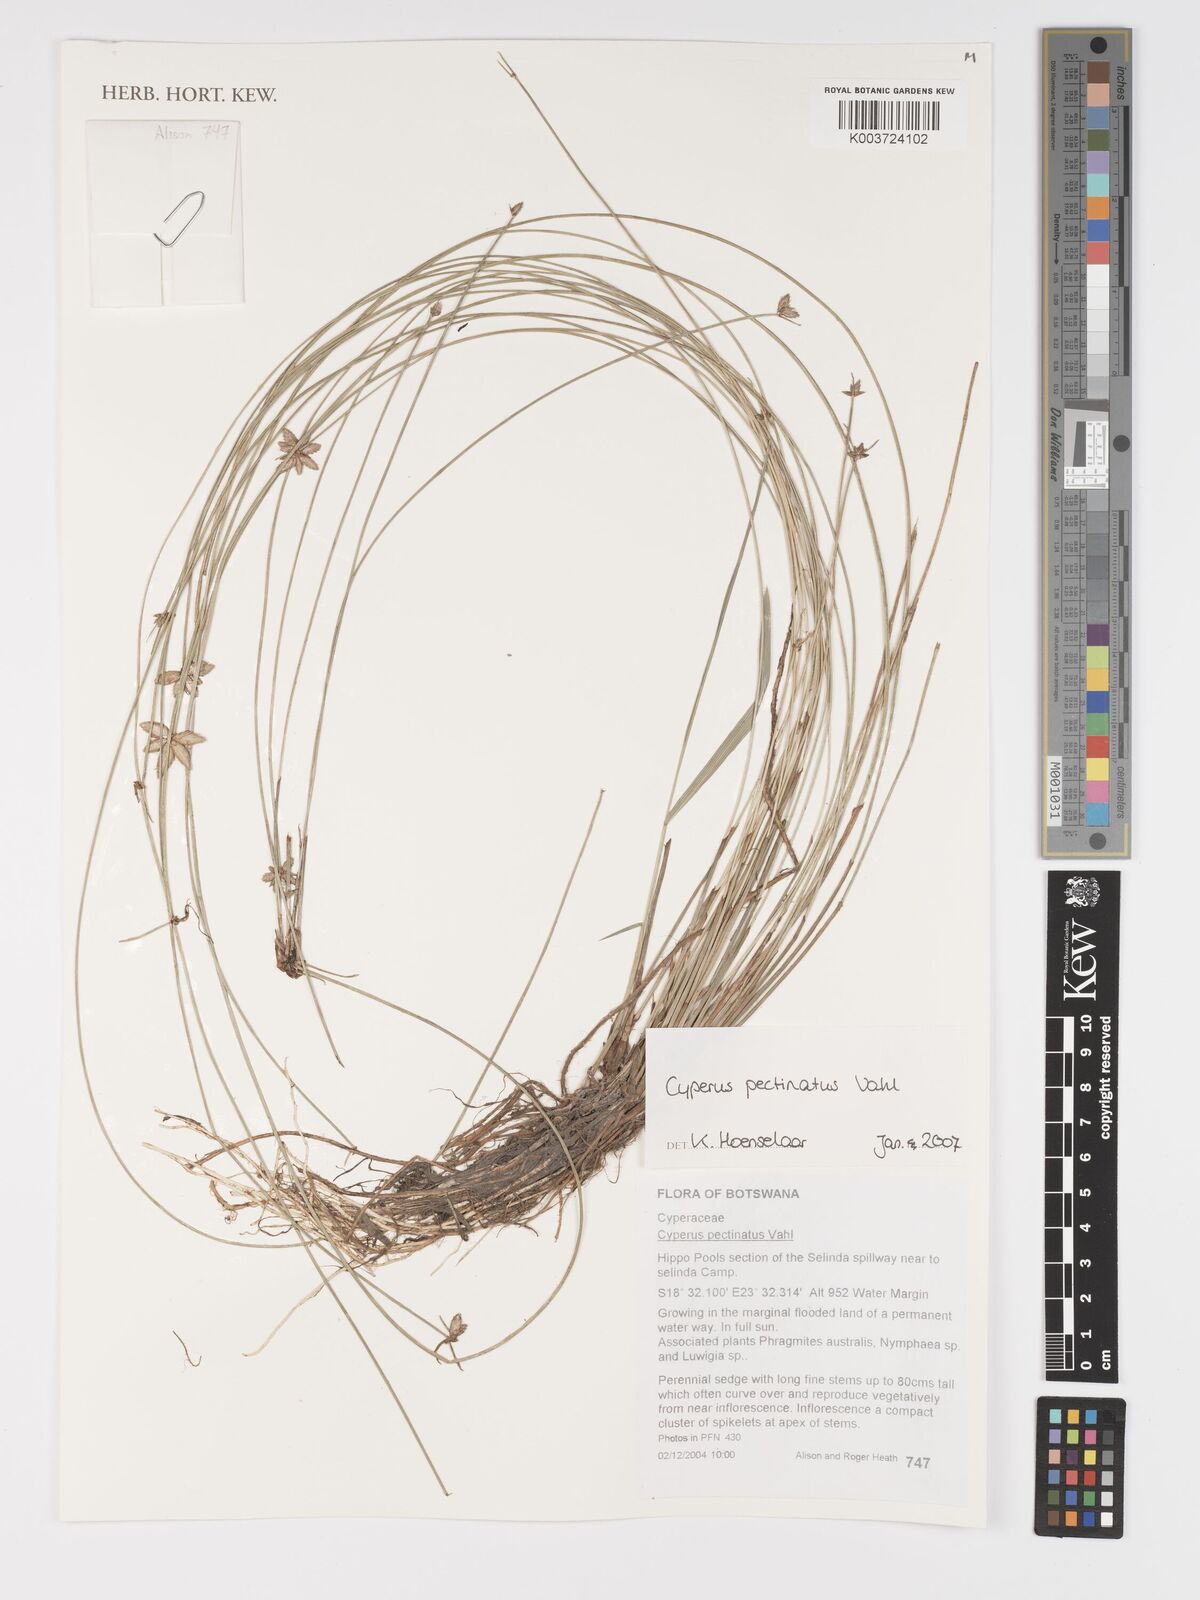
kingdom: Plantae
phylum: Tracheophyta
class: Liliopsida
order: Poales
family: Cyperaceae
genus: Cyperus
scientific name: Cyperus compressus
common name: Poorland flatsedge
